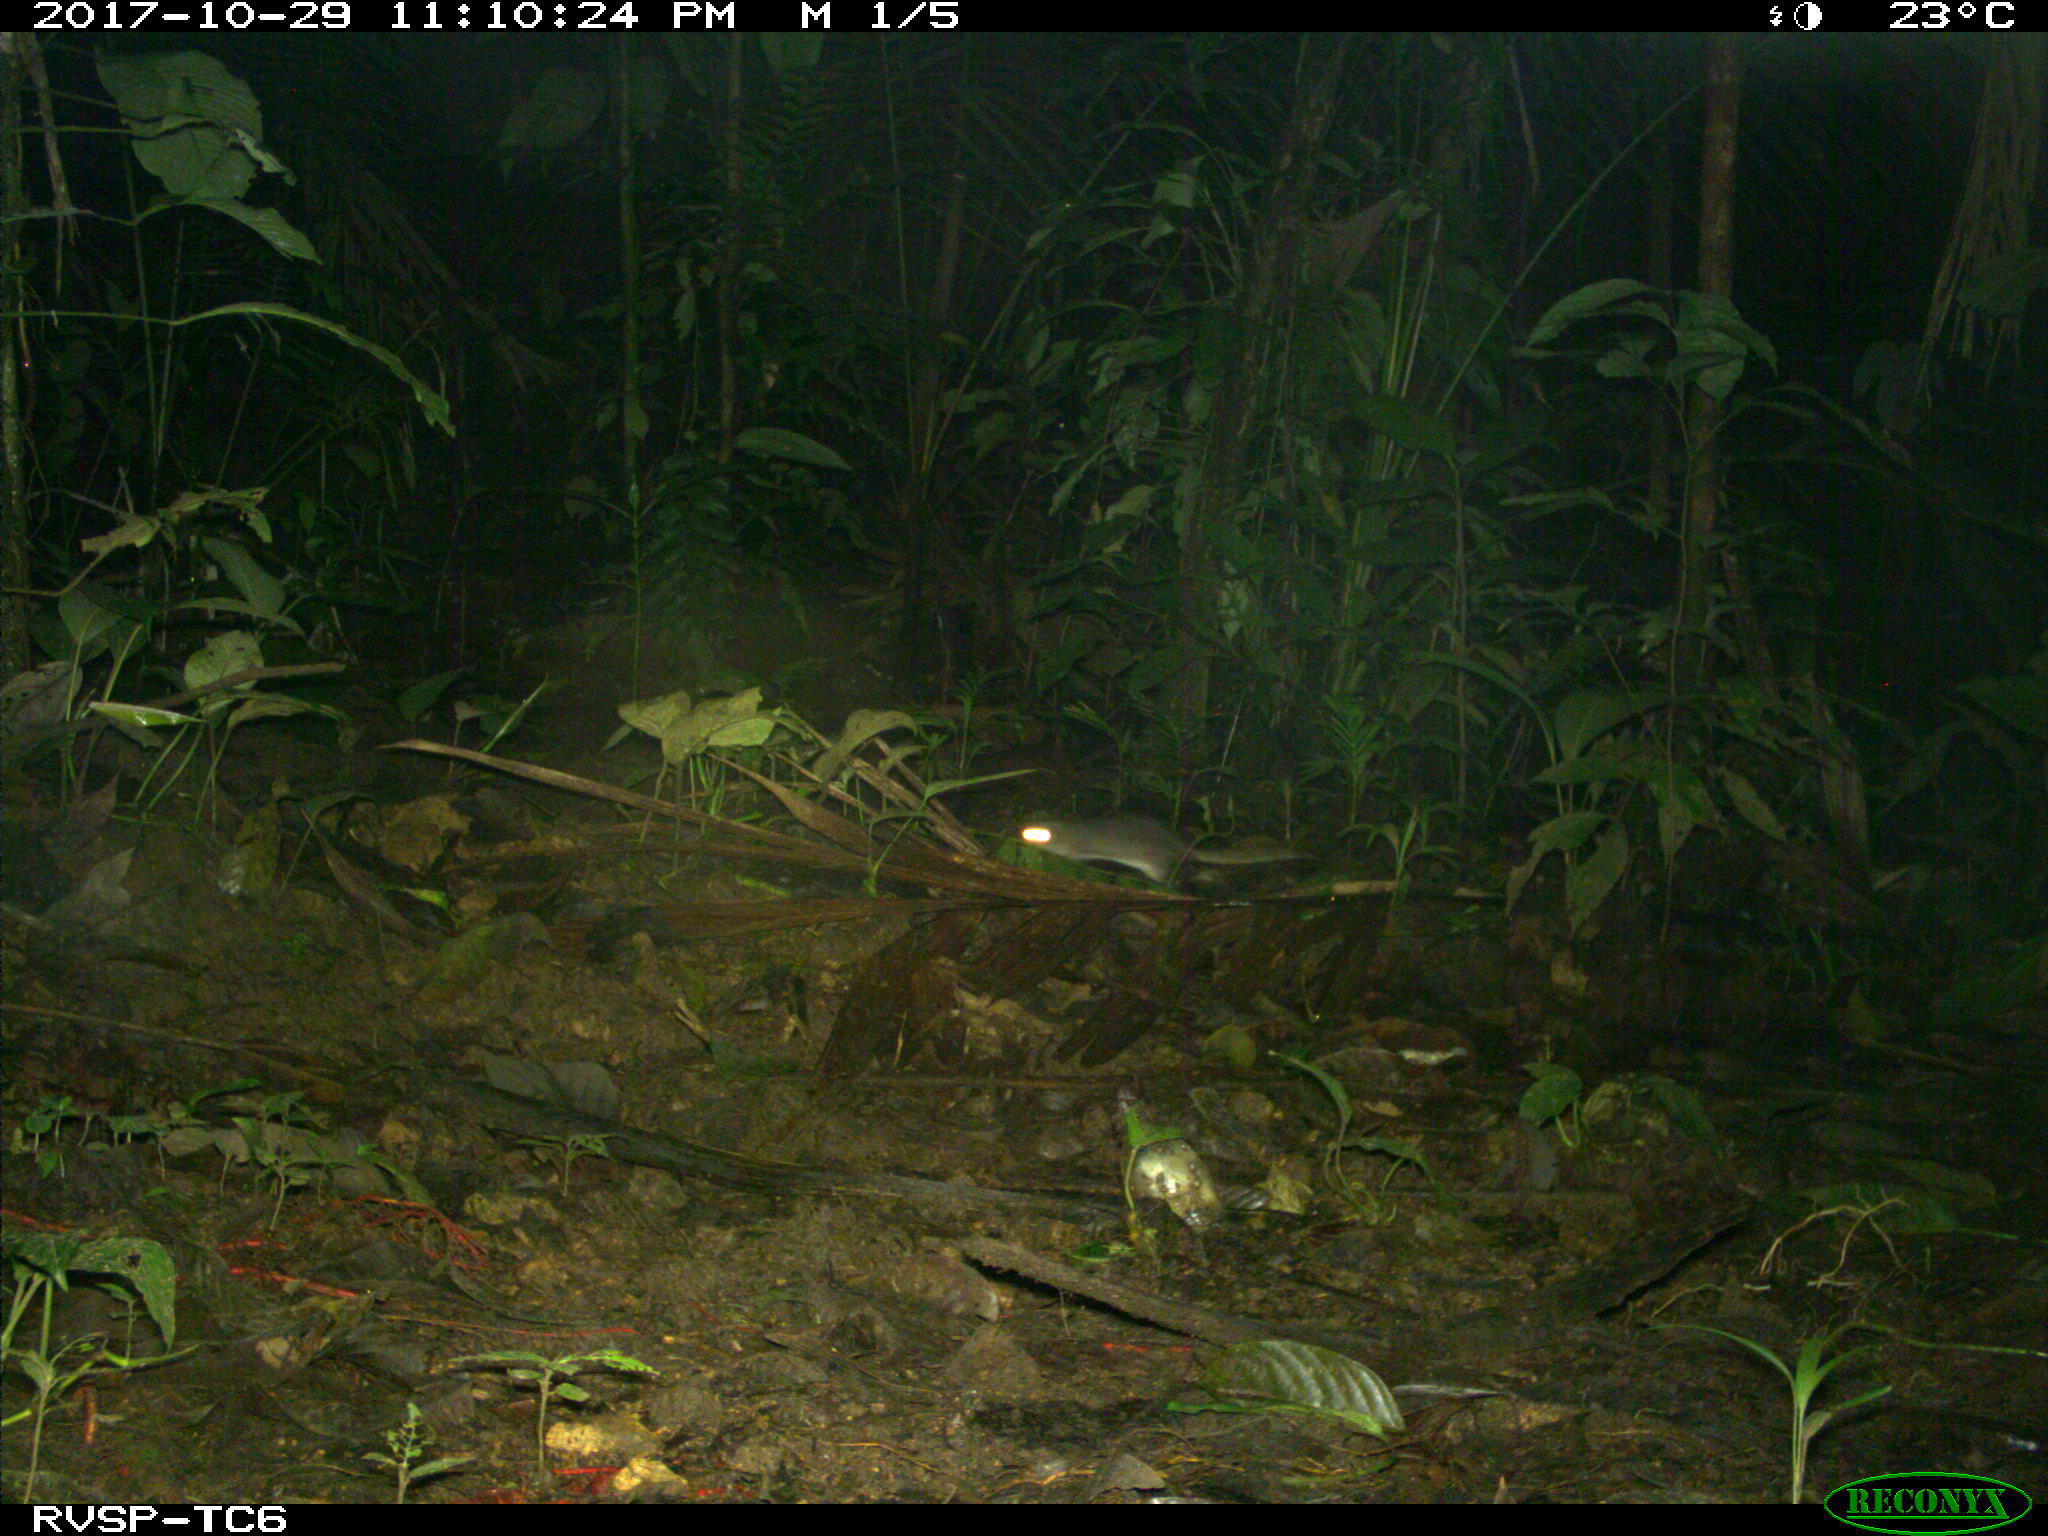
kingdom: Animalia
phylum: Chordata
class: Mammalia
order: Rodentia
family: Echimyidae
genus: Proechimys
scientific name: Proechimys
